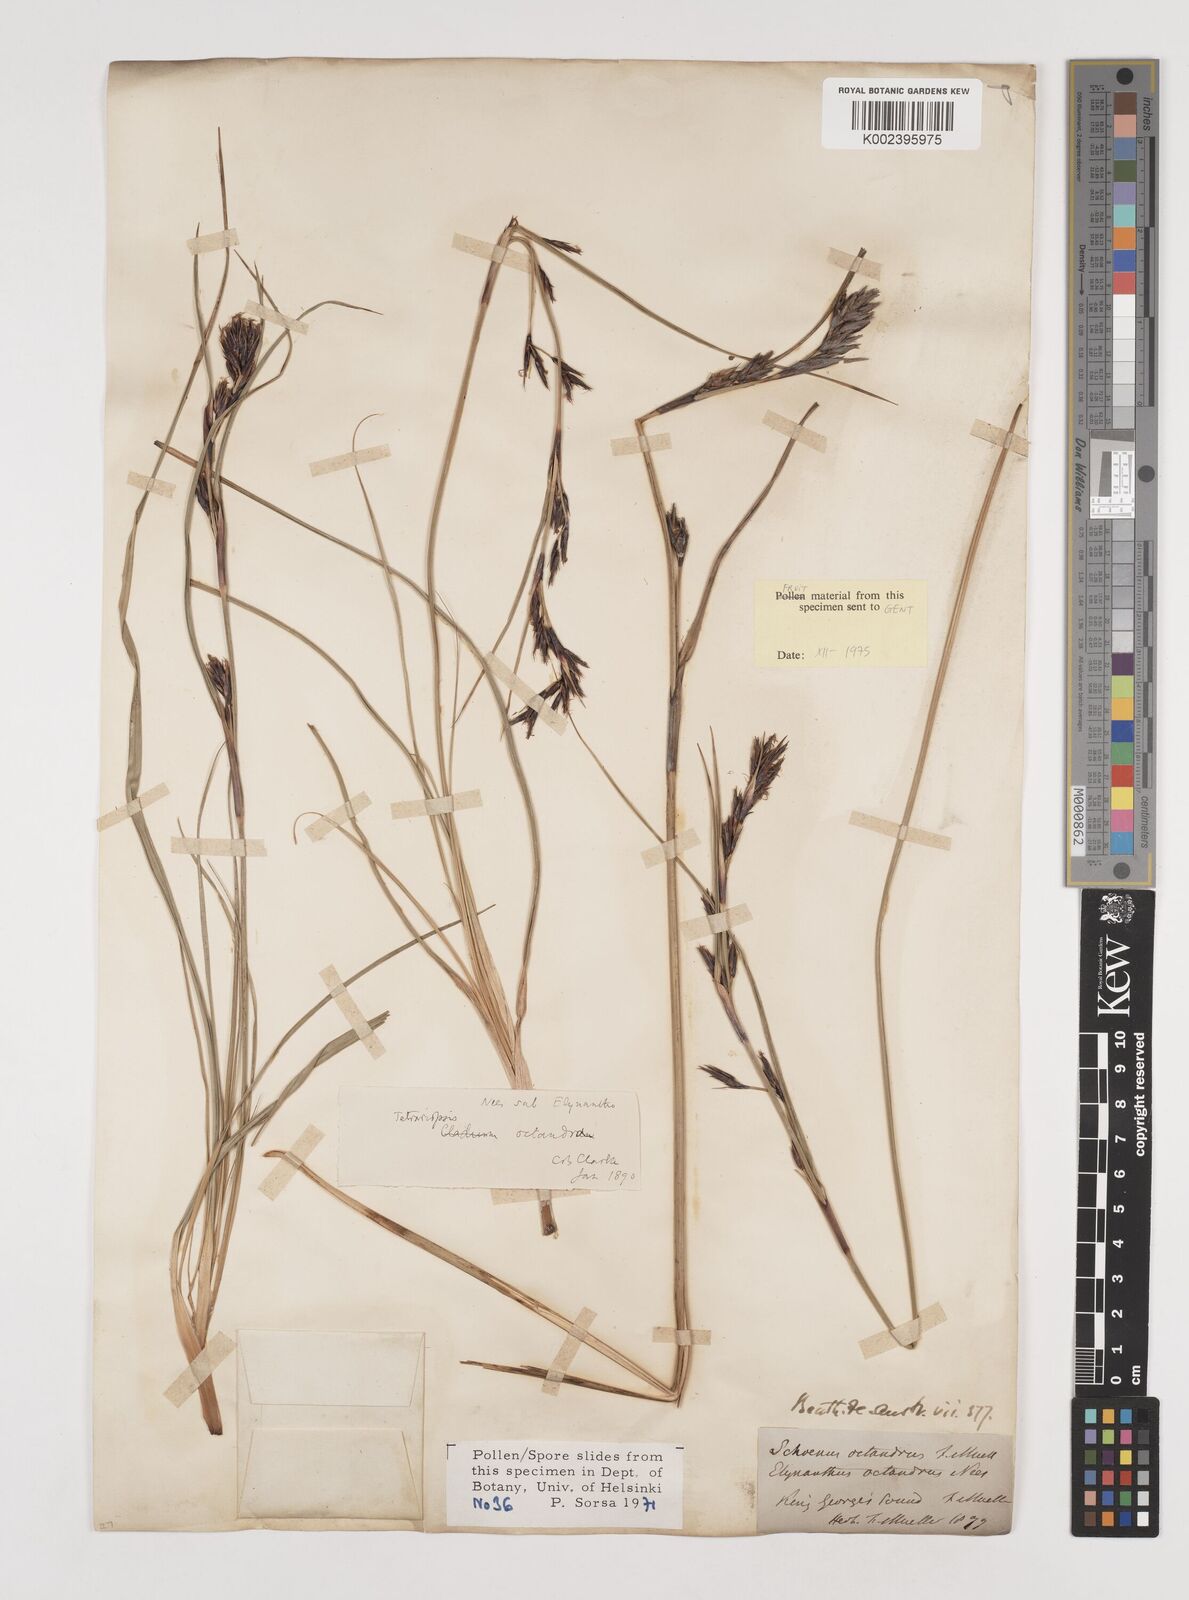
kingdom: Plantae
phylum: Tracheophyta
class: Liliopsida
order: Poales
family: Cyperaceae
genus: Tetraria
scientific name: Tetraria octandra
